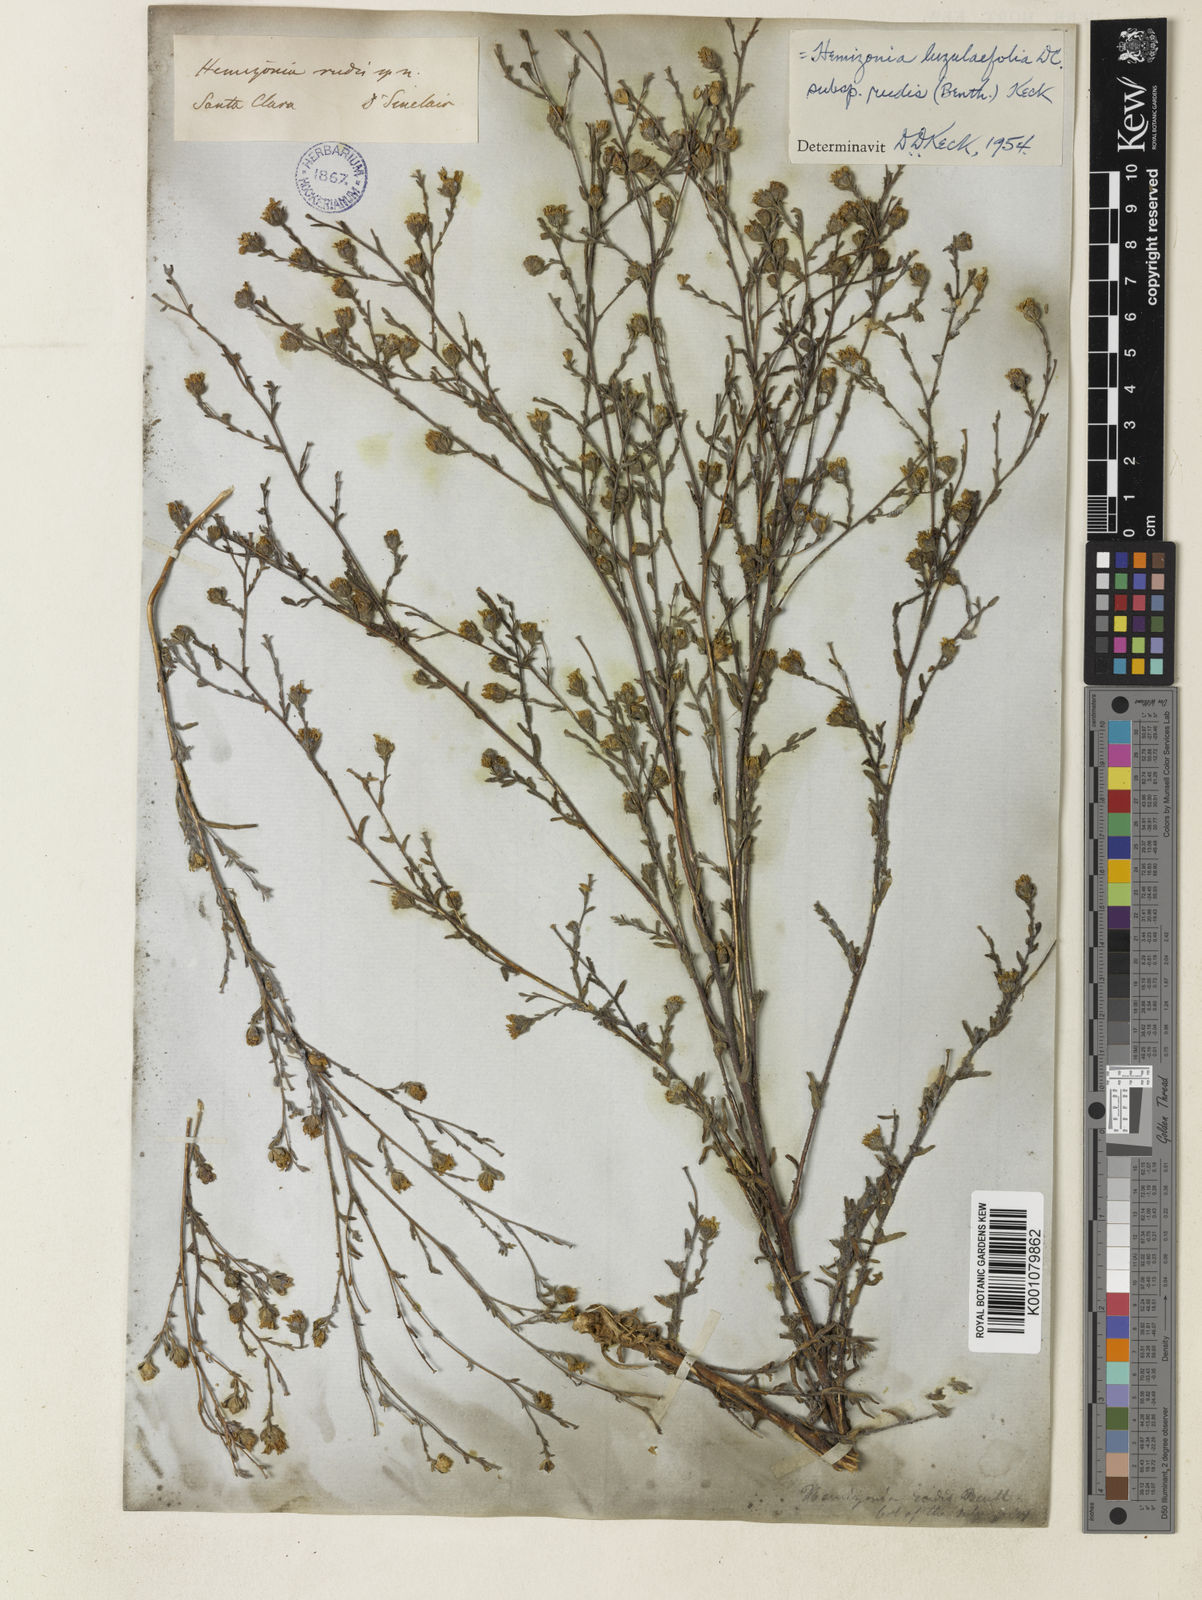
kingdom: Plantae
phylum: Tracheophyta
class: Magnoliopsida
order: Asterales
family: Asteraceae
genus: Hemizonia
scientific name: Hemizonia congesta
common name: Hayfield tarweed
